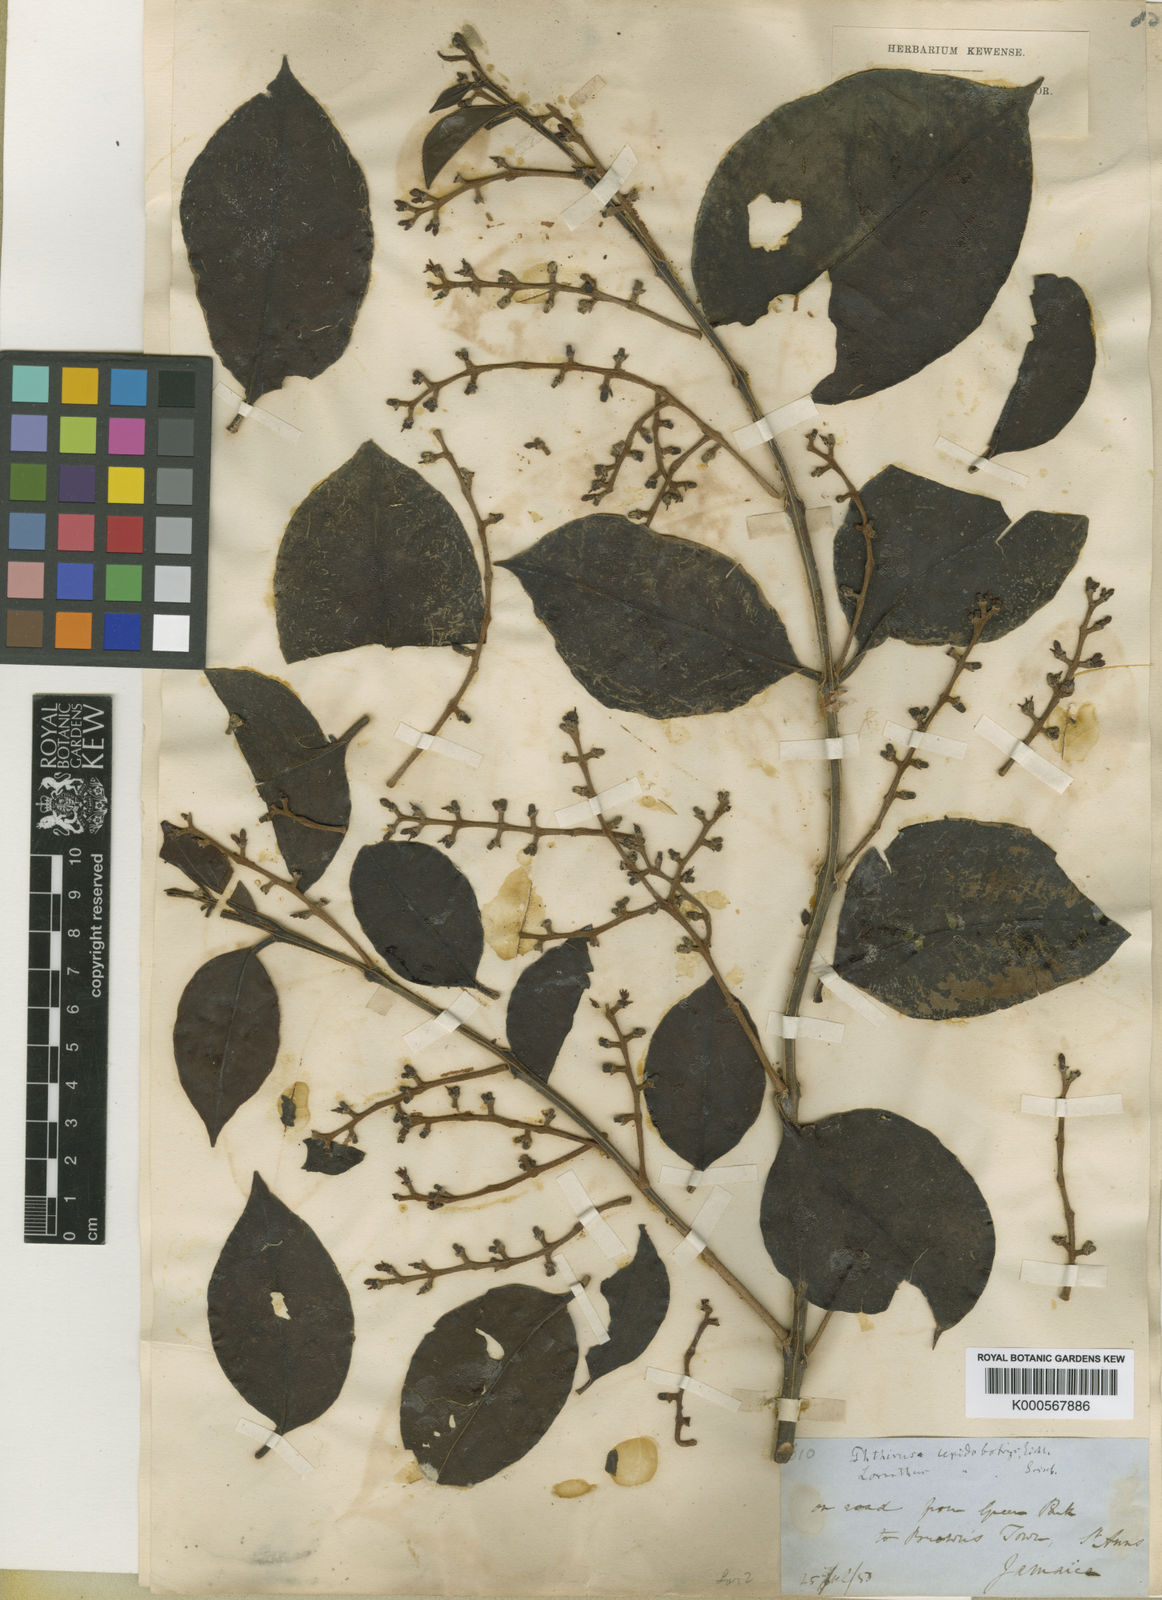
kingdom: Plantae
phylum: Tracheophyta
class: Magnoliopsida
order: Santalales
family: Loranthaceae
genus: Passovia
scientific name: Passovia
